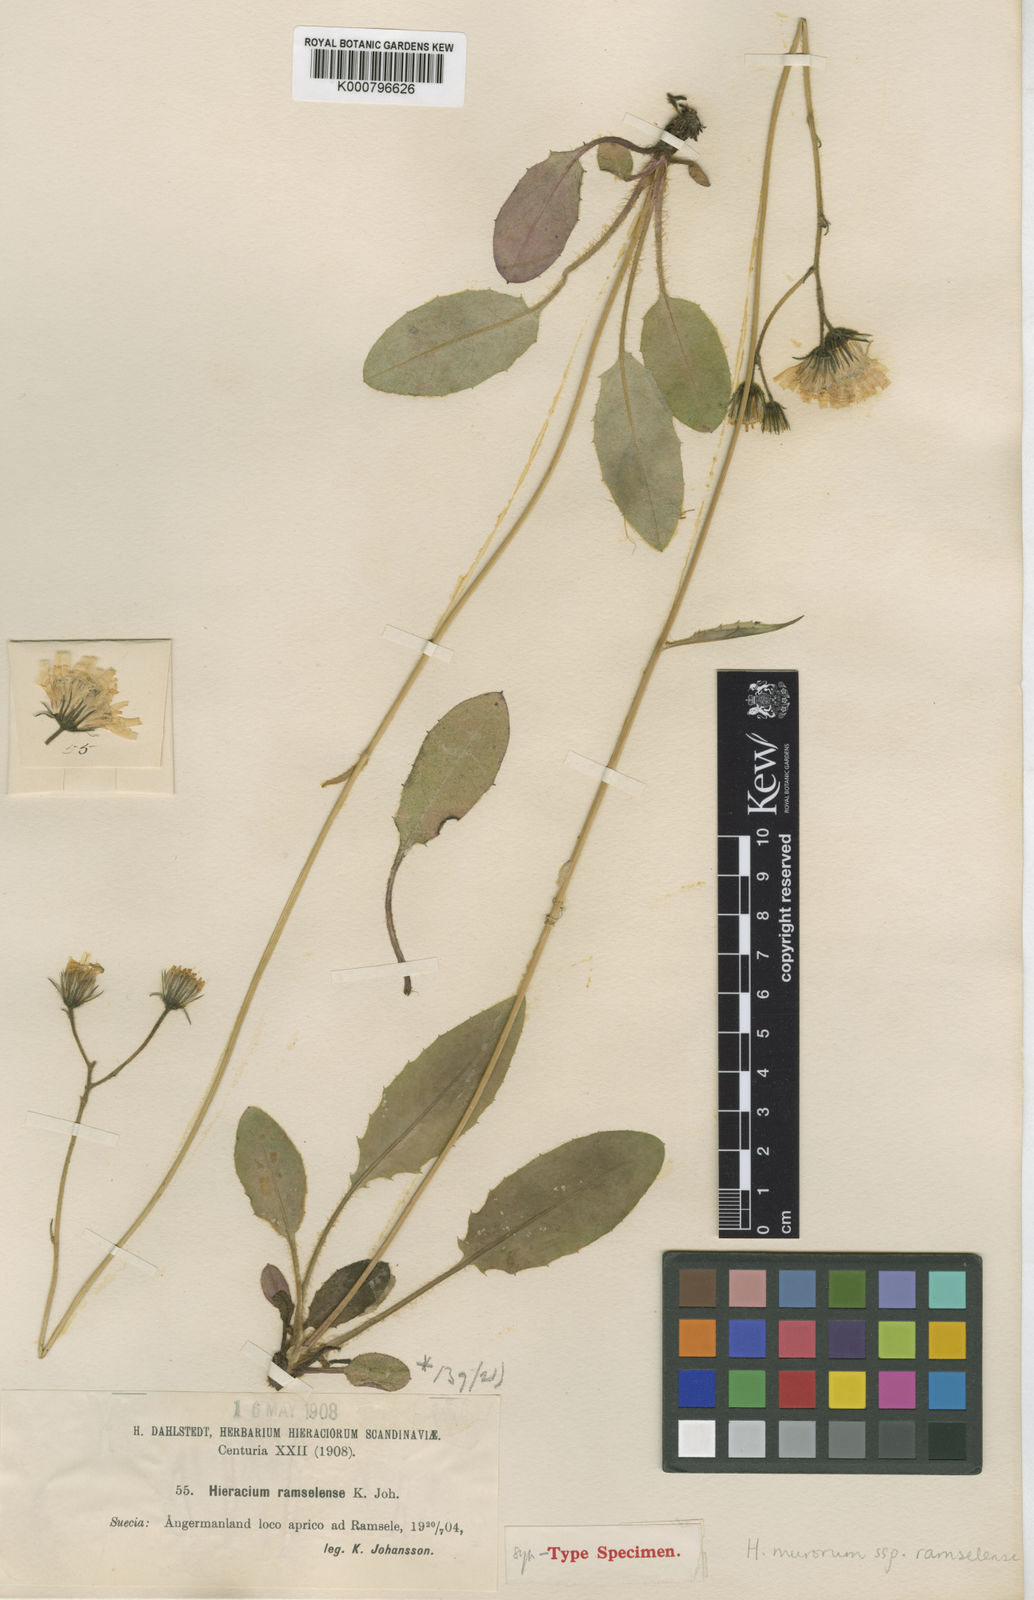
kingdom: Plantae
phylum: Tracheophyta
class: Magnoliopsida
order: Asterales
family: Asteraceae
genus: Hieracium
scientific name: Hieracium murorum
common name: Wall hawkweed
